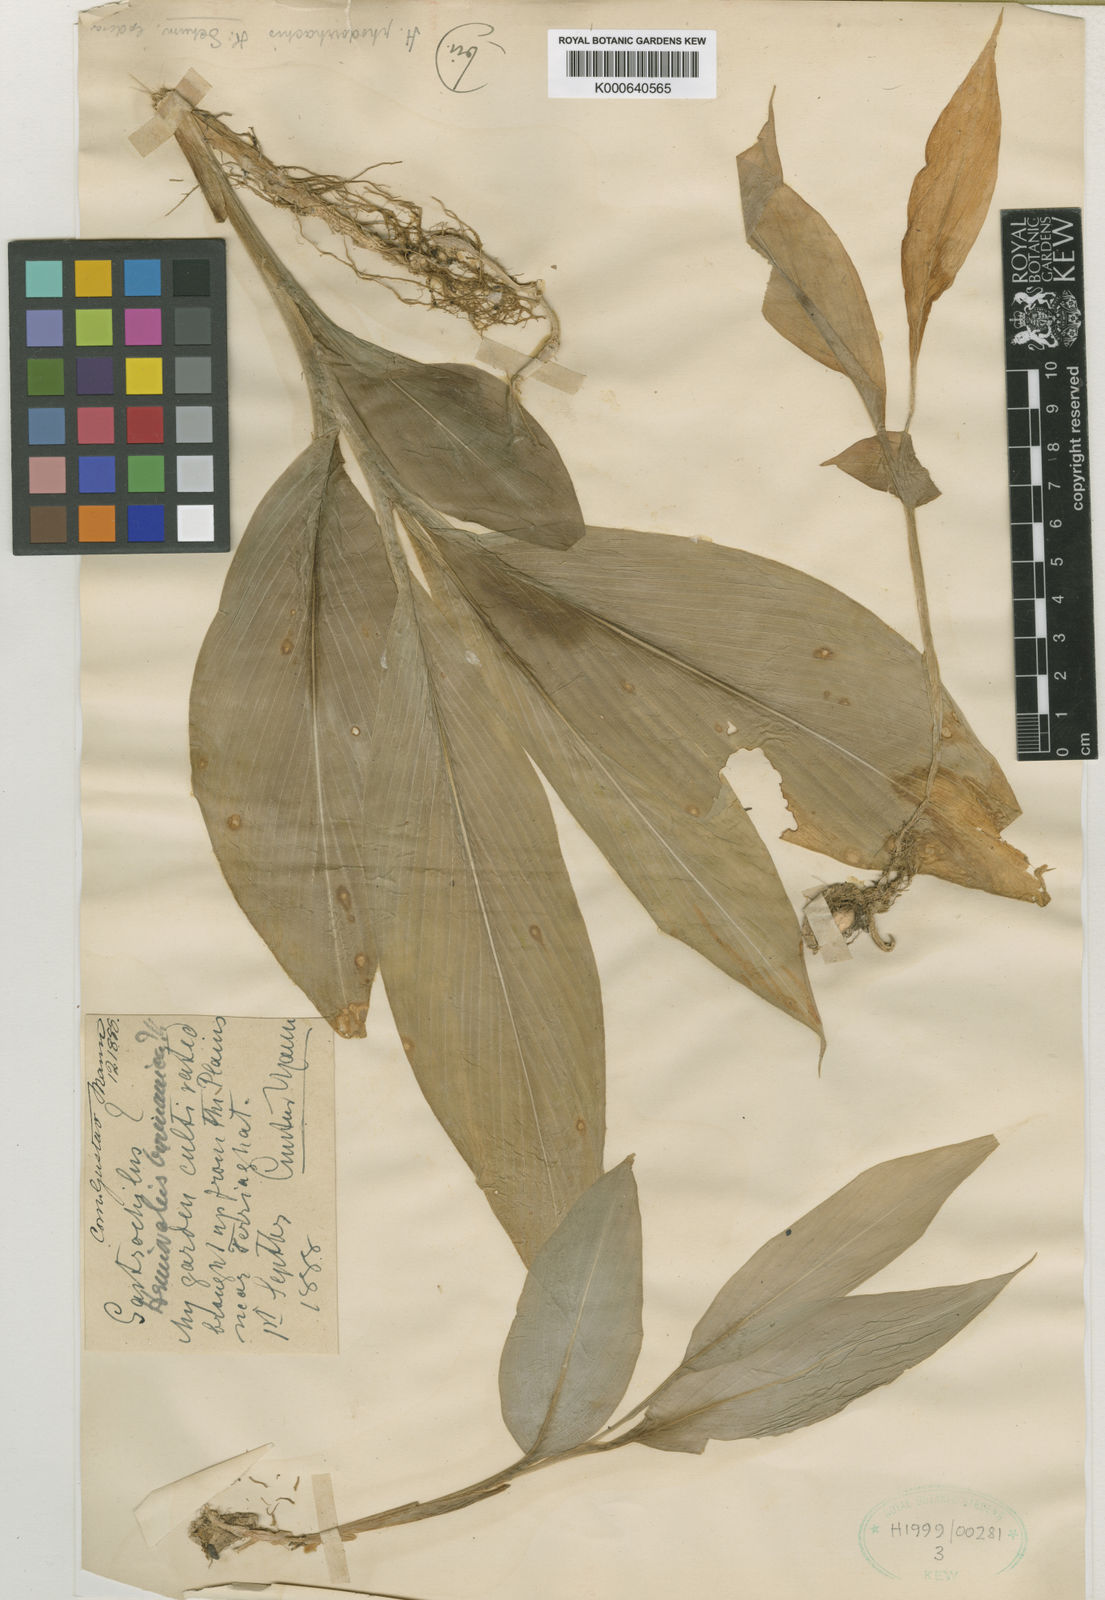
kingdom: Plantae
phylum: Tracheophyta
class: Liliopsida
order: Zingiberales
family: Zingiberaceae
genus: Hemiorchis
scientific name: Hemiorchis rhodorrhachis
